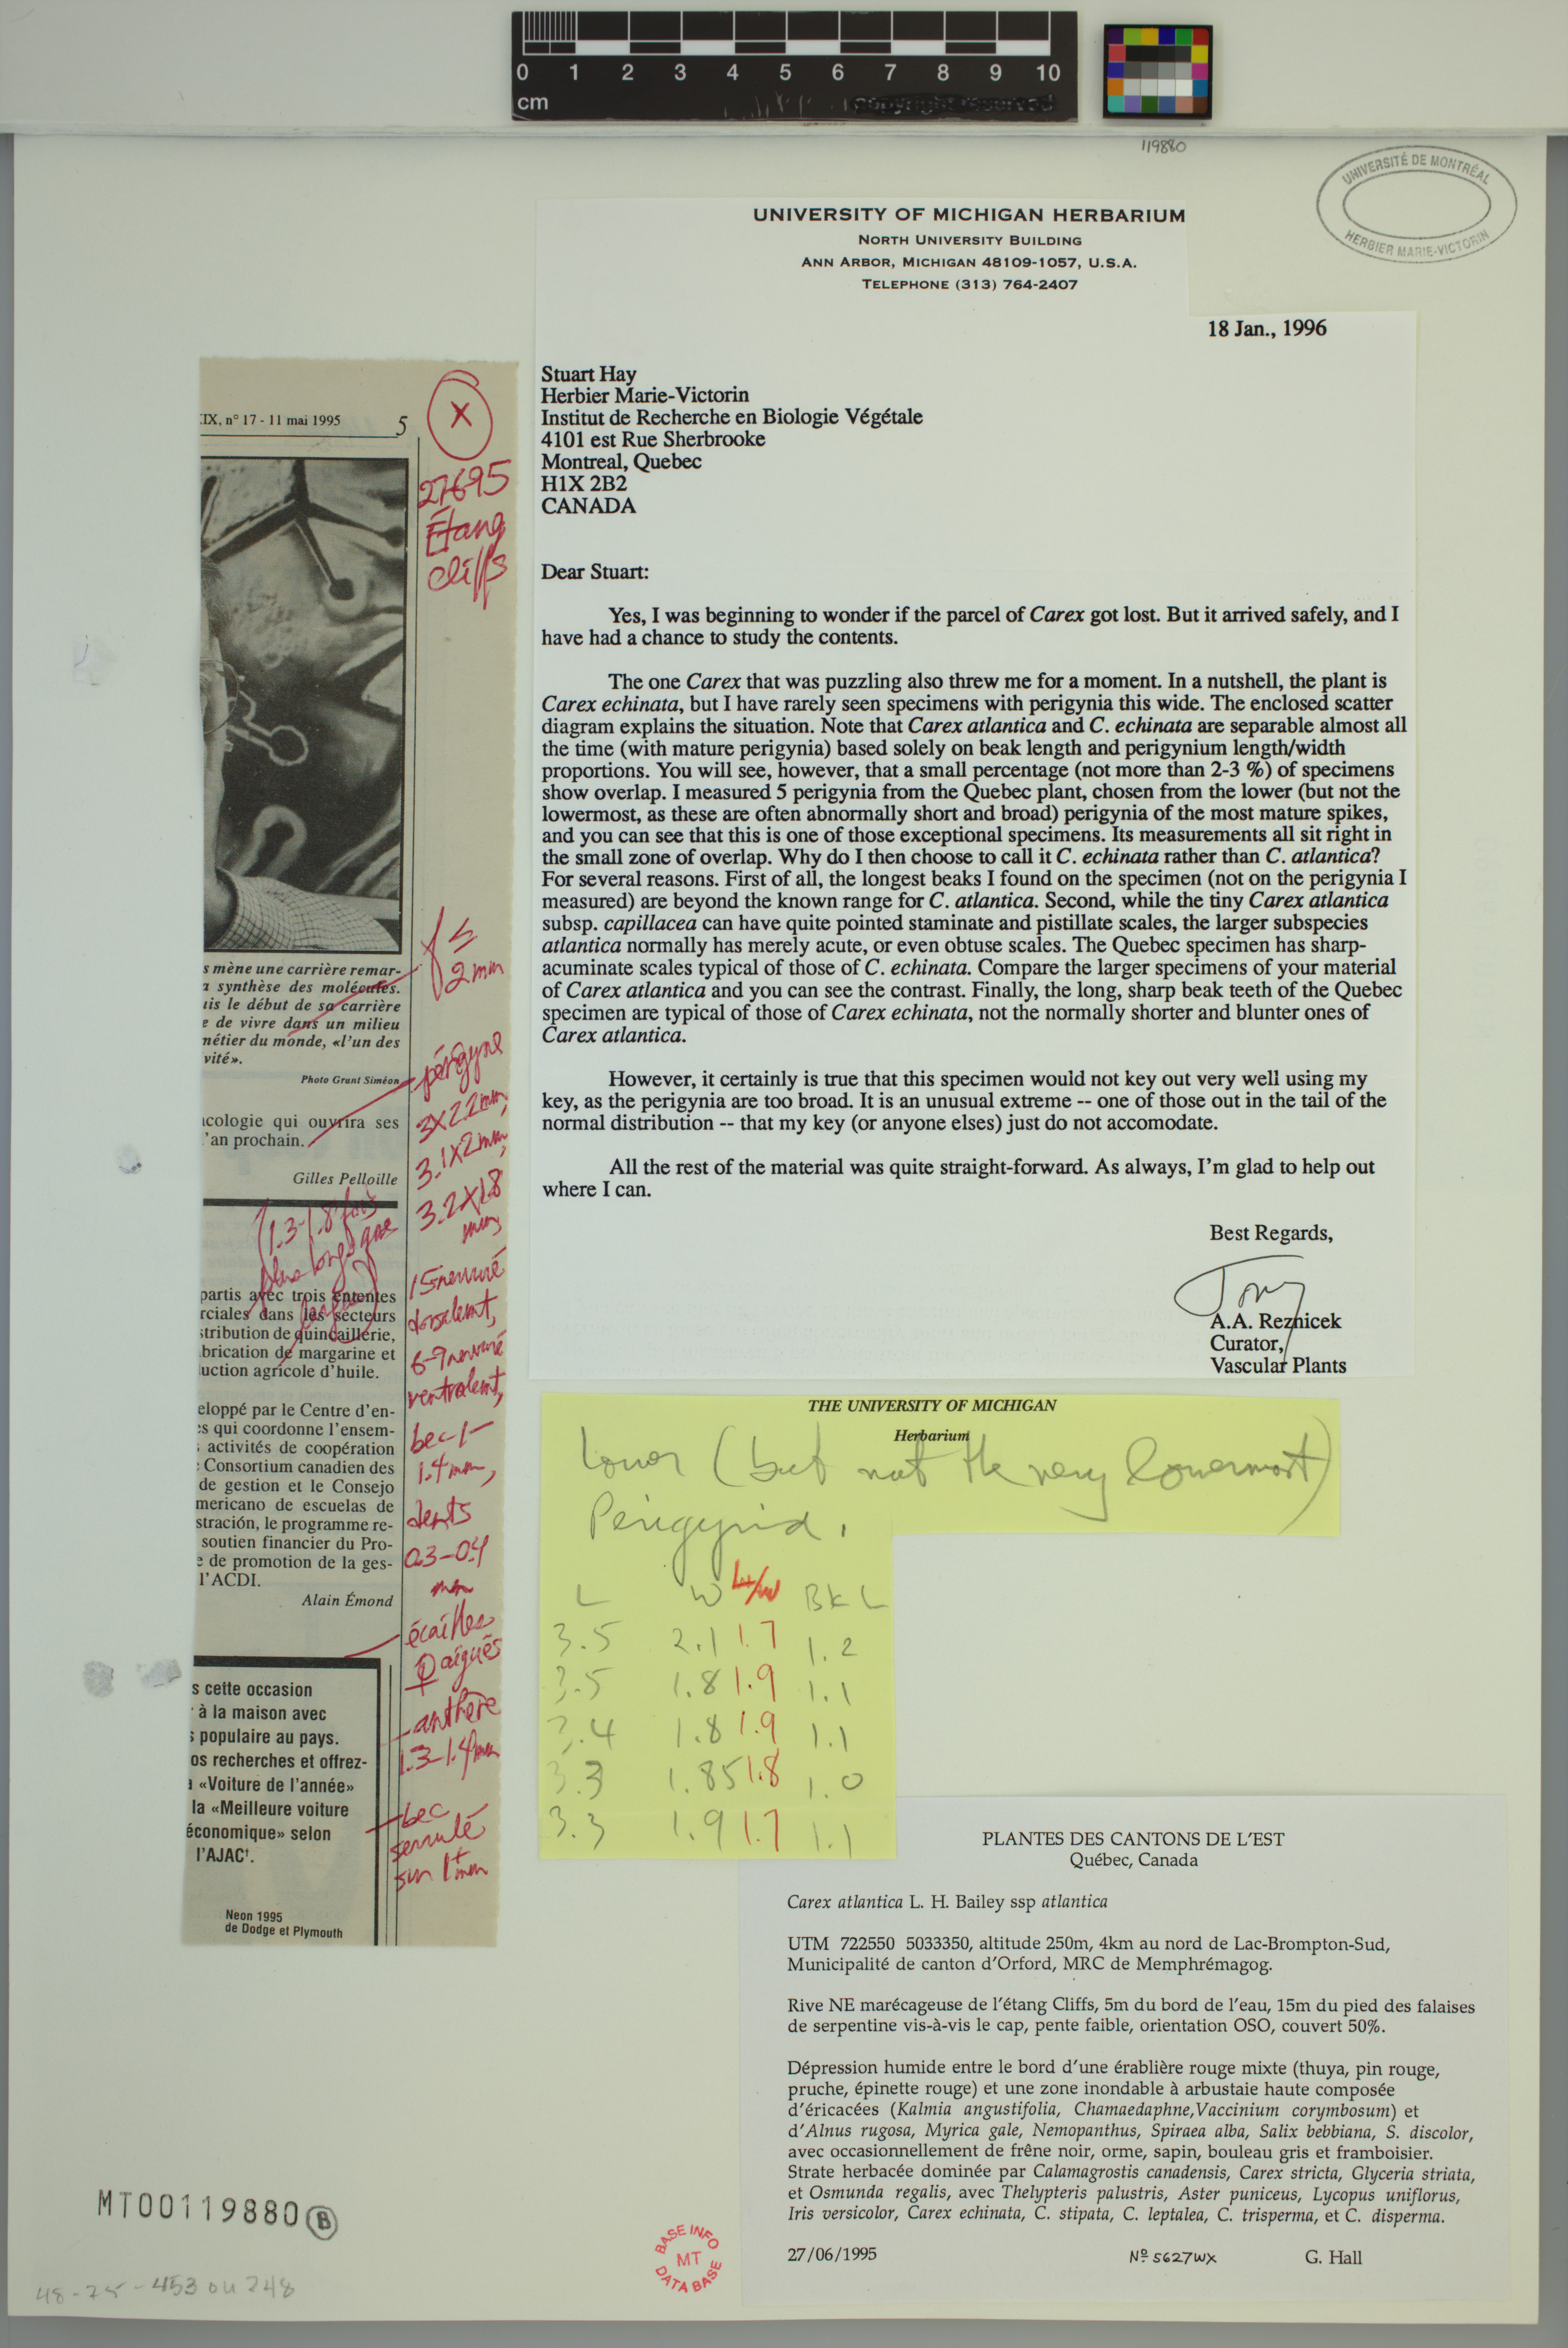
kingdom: Plantae
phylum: Tracheophyta
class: Liliopsida
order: Poales
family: Cyperaceae
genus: Carex
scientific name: Carex echinata
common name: Star sedge
